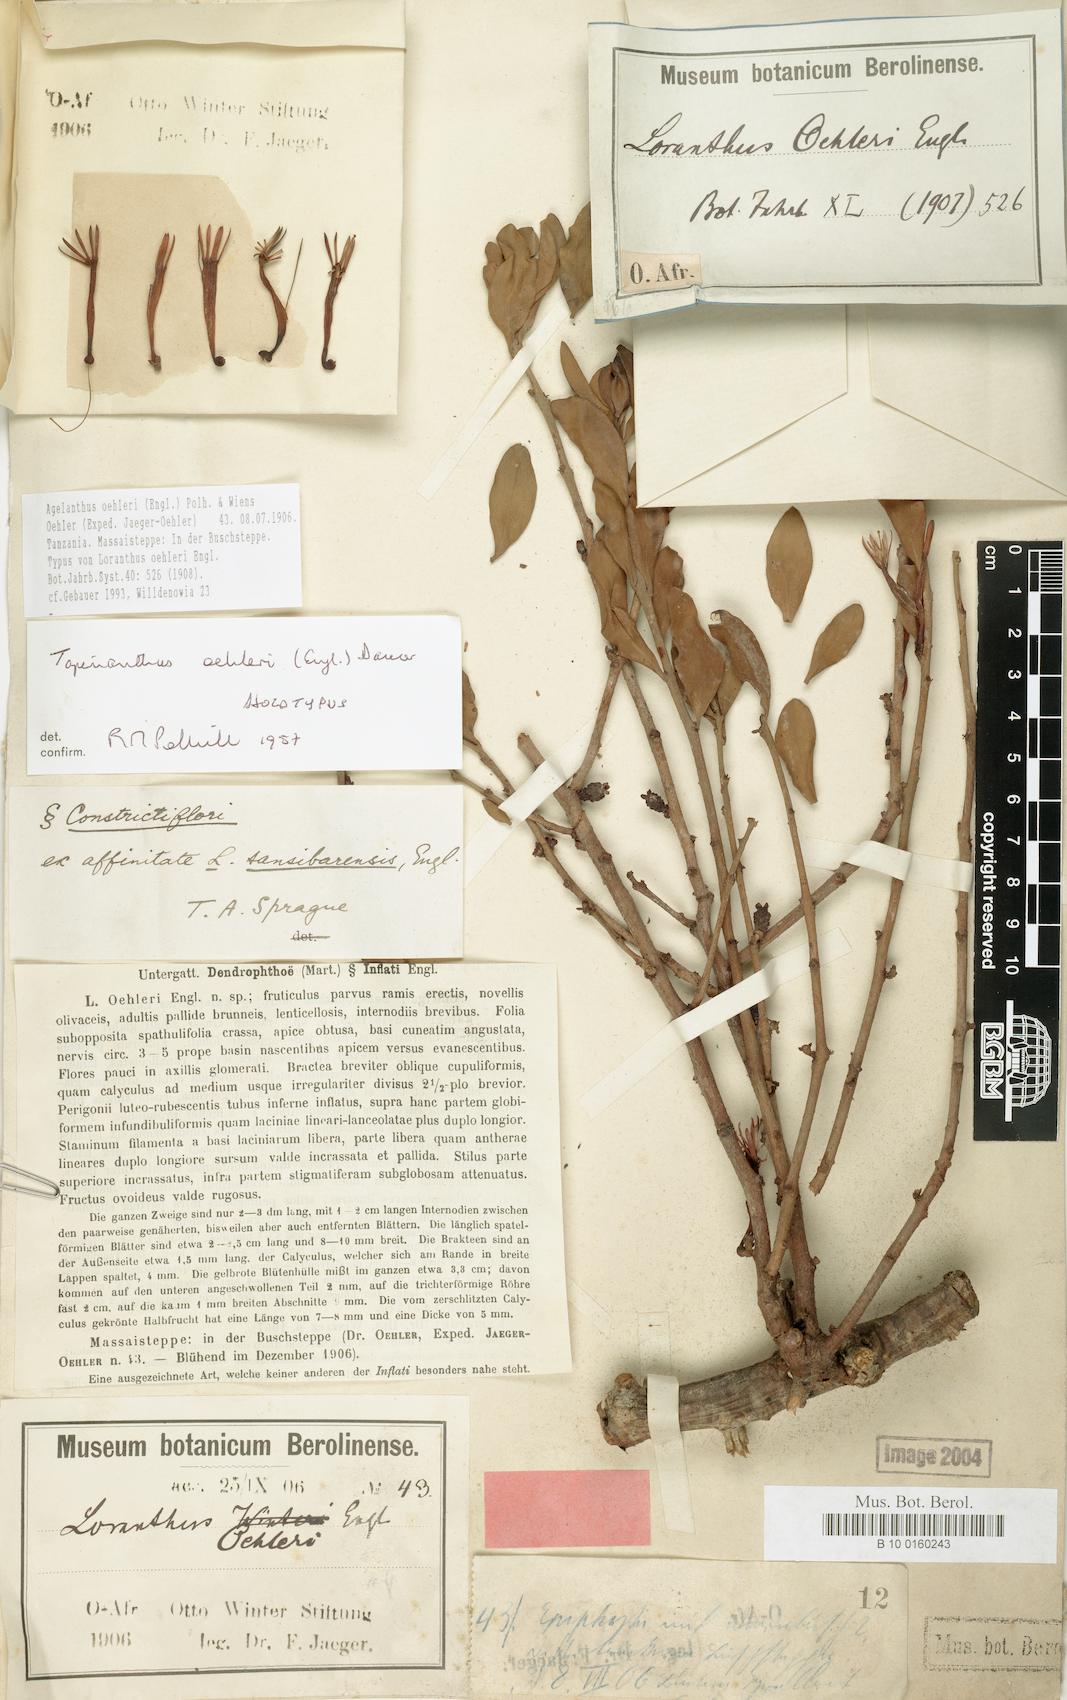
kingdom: Plantae
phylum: Tracheophyta
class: Magnoliopsida
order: Santalales
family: Loranthaceae
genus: Agelanthus
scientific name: Agelanthus oehleri
